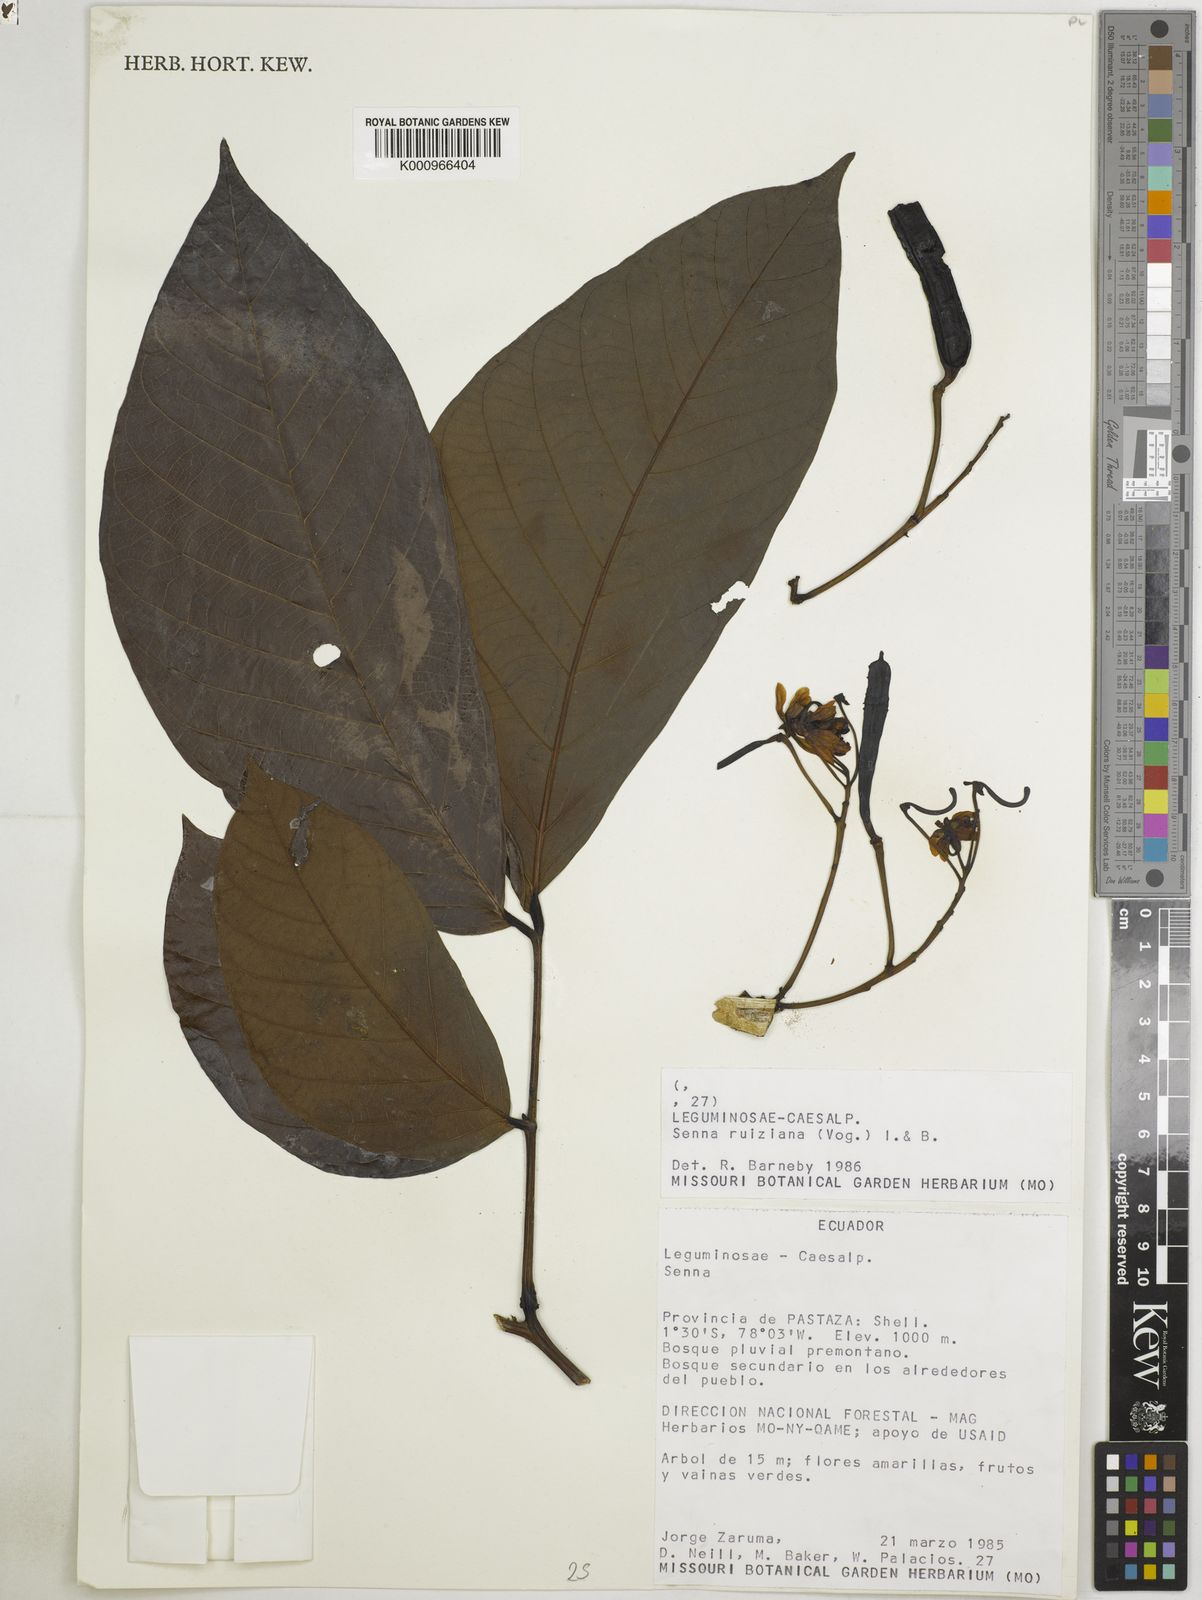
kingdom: Plantae
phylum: Tracheophyta
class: Magnoliopsida
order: Fabales
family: Fabaceae
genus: Senna
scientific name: Senna ruiziana
